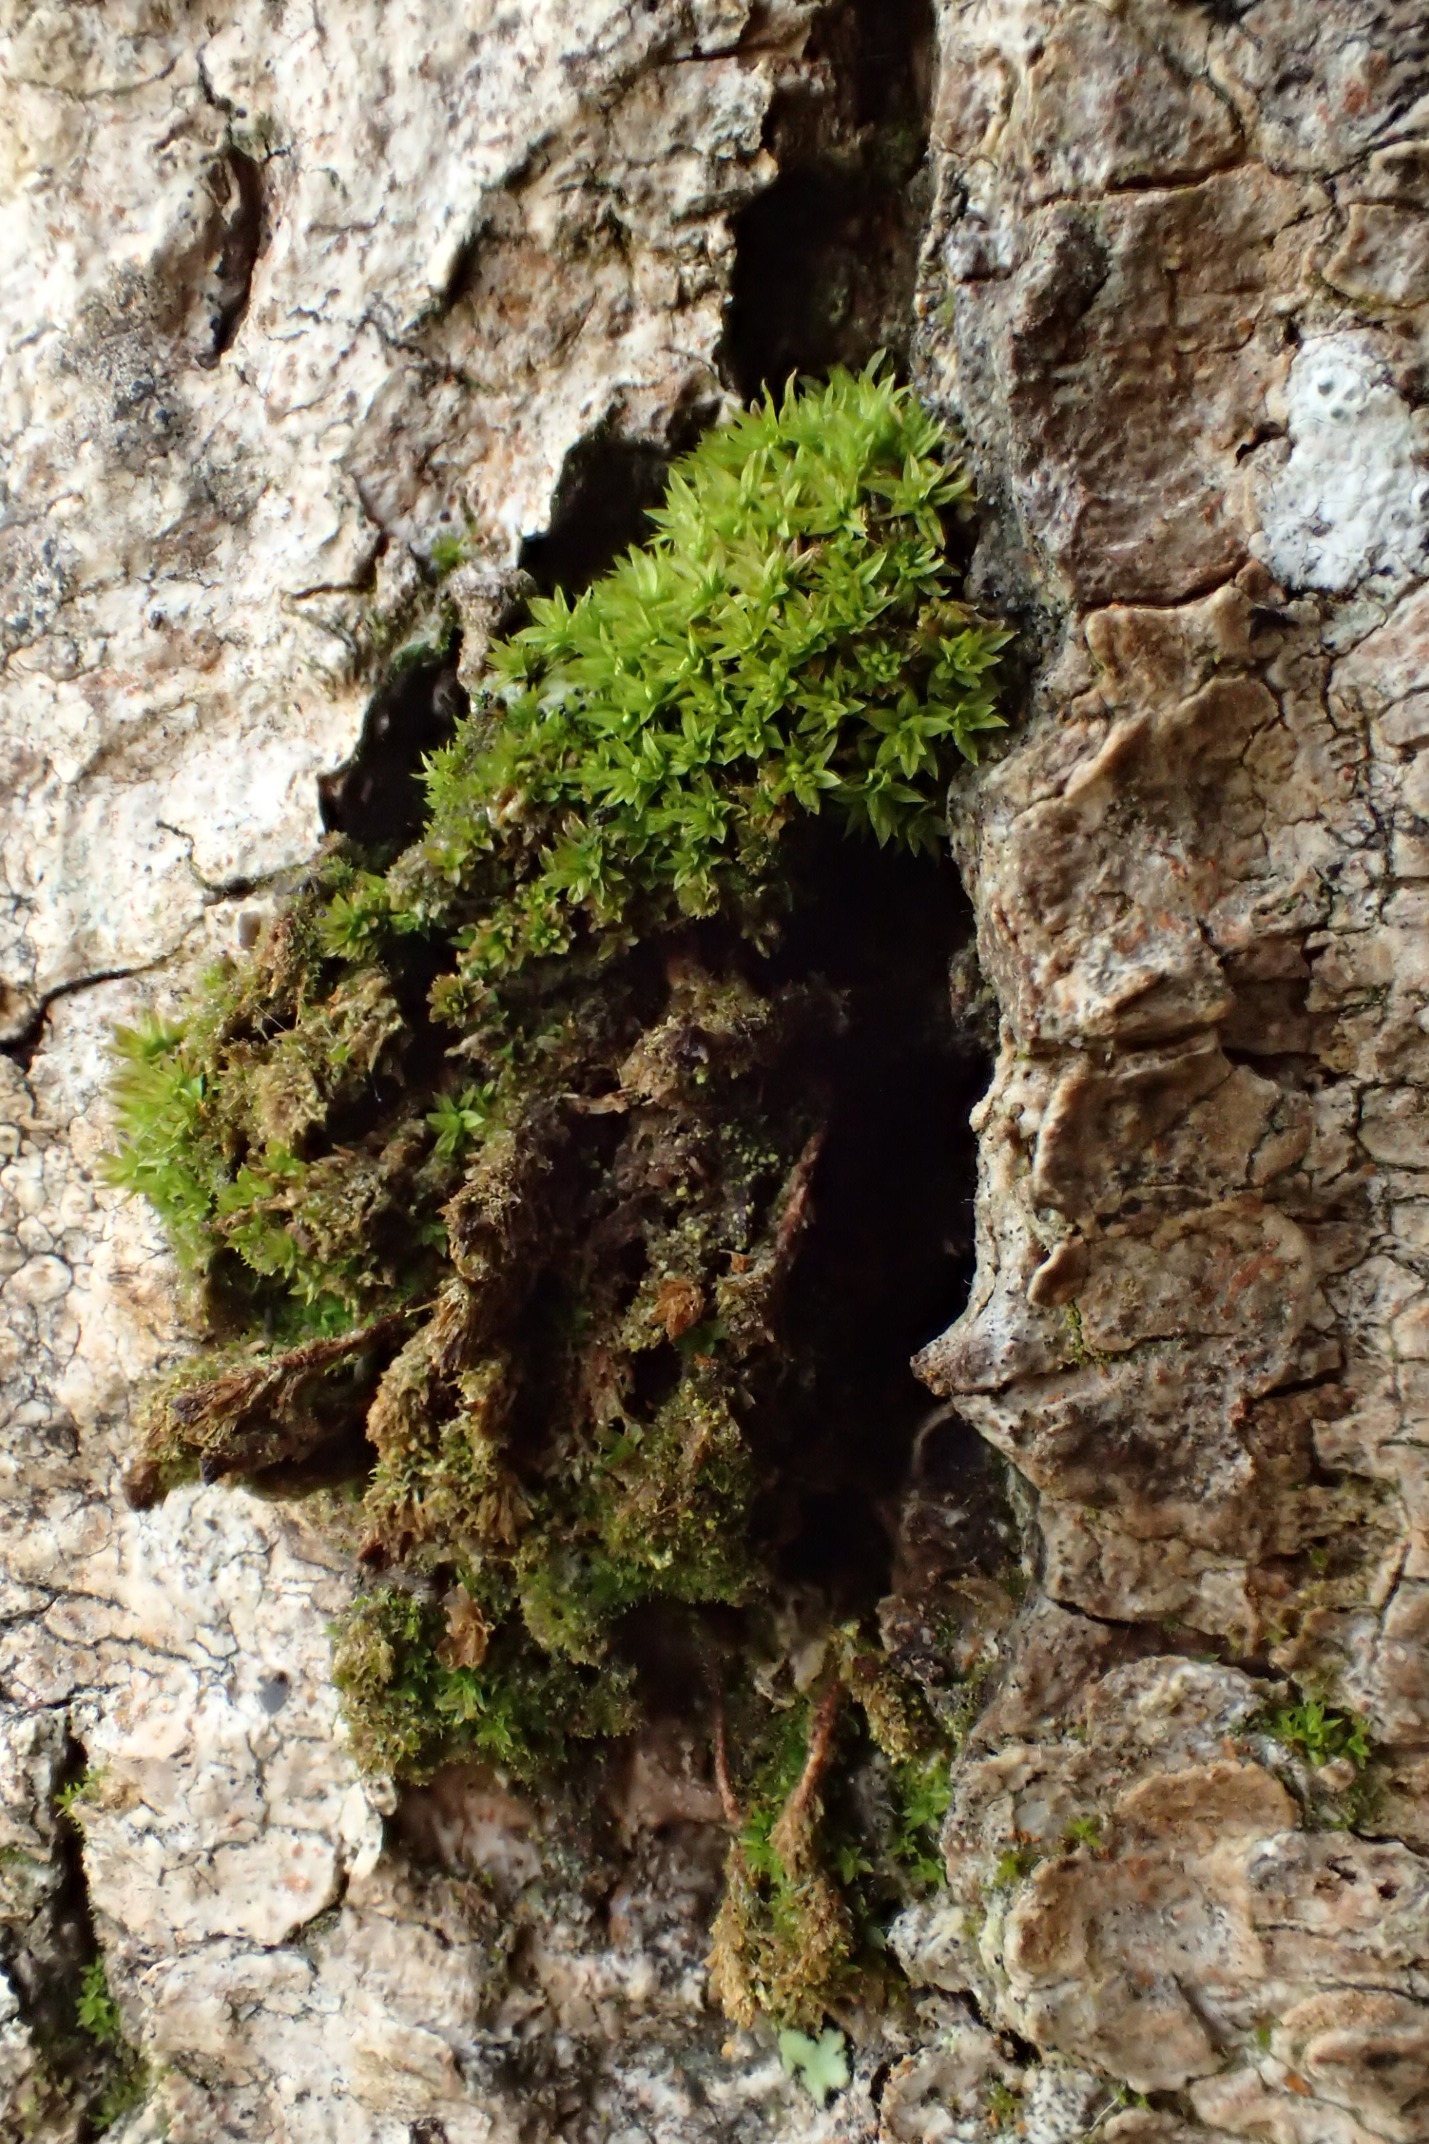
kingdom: Plantae
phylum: Bryophyta
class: Bryopsida
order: Orthotrichales
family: Orthotrichaceae
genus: Zygodon
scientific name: Zygodon conoideus
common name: Tand-køllemos
